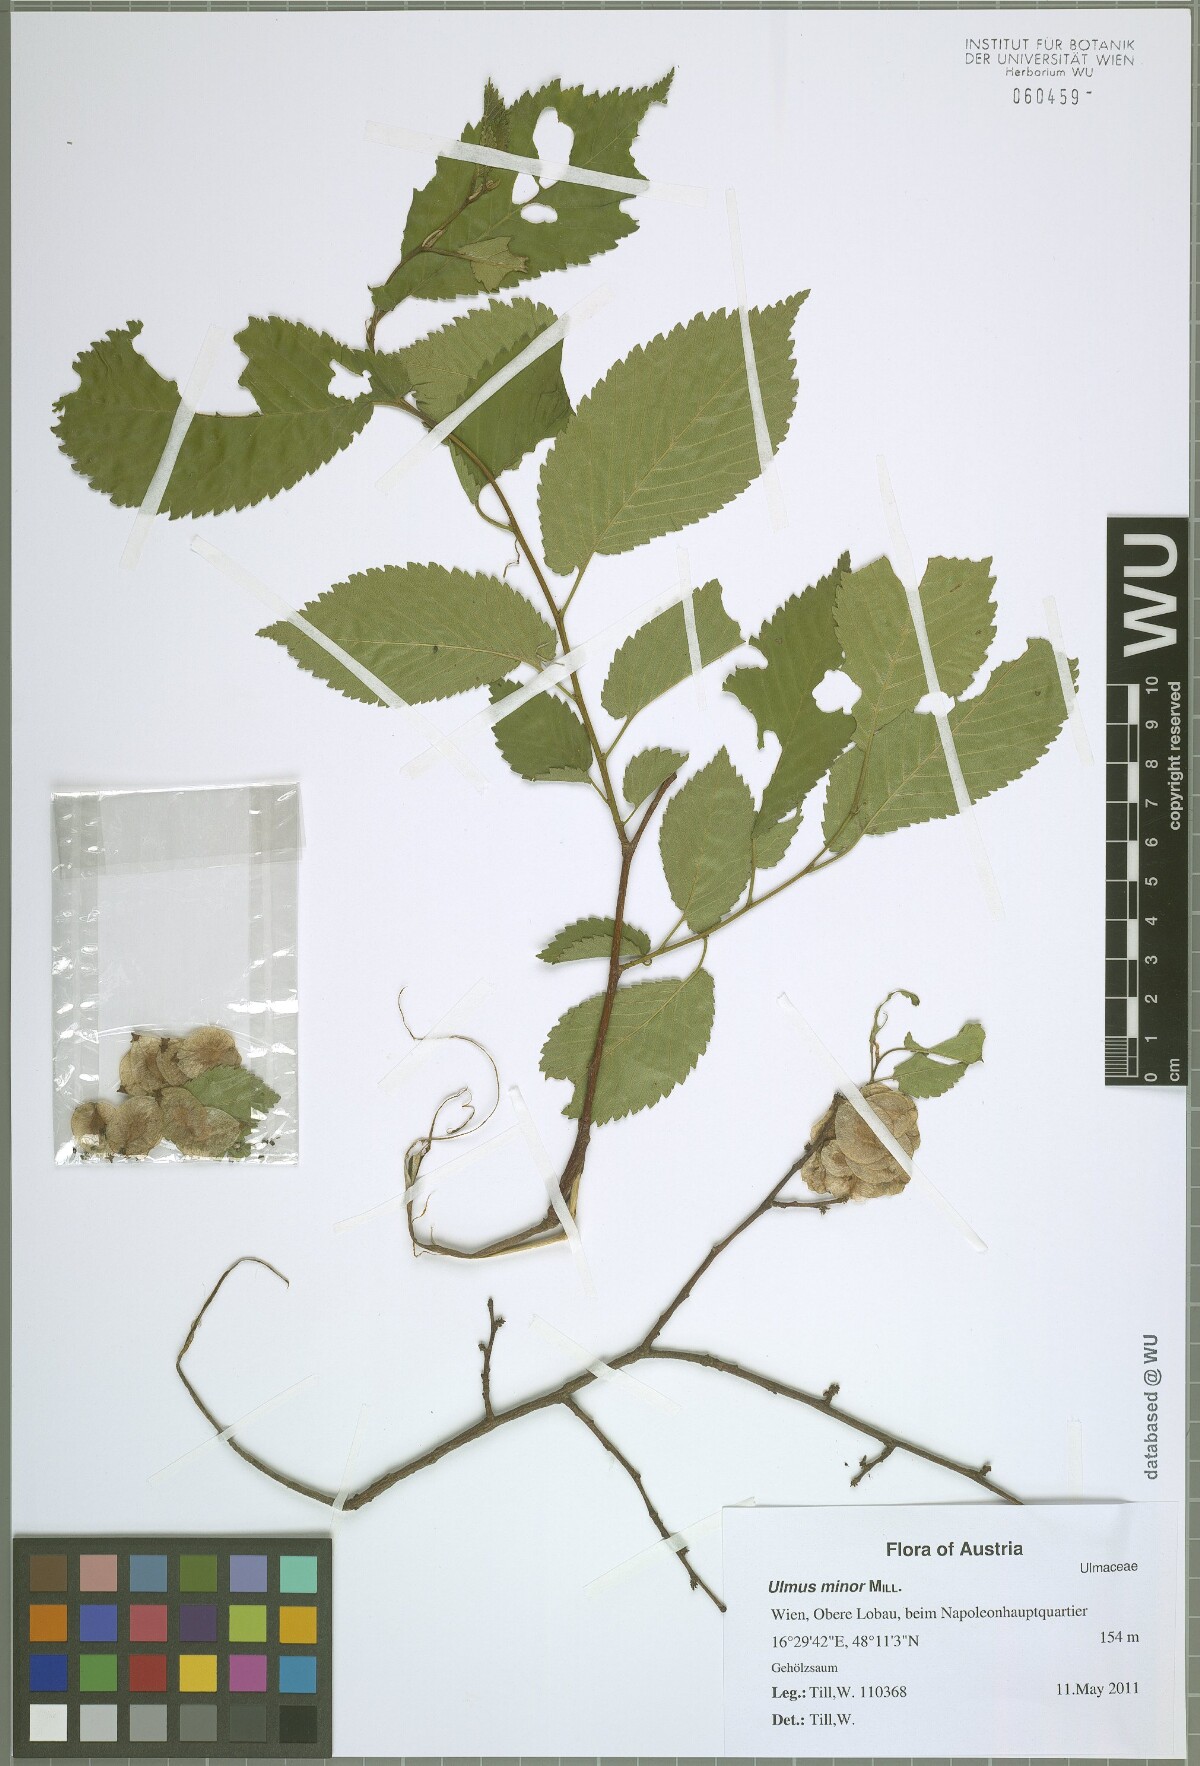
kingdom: Plantae
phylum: Tracheophyta
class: Magnoliopsida
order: Rosales
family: Ulmaceae
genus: Ulmus
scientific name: Ulmus minor
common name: Small-leaved elm
